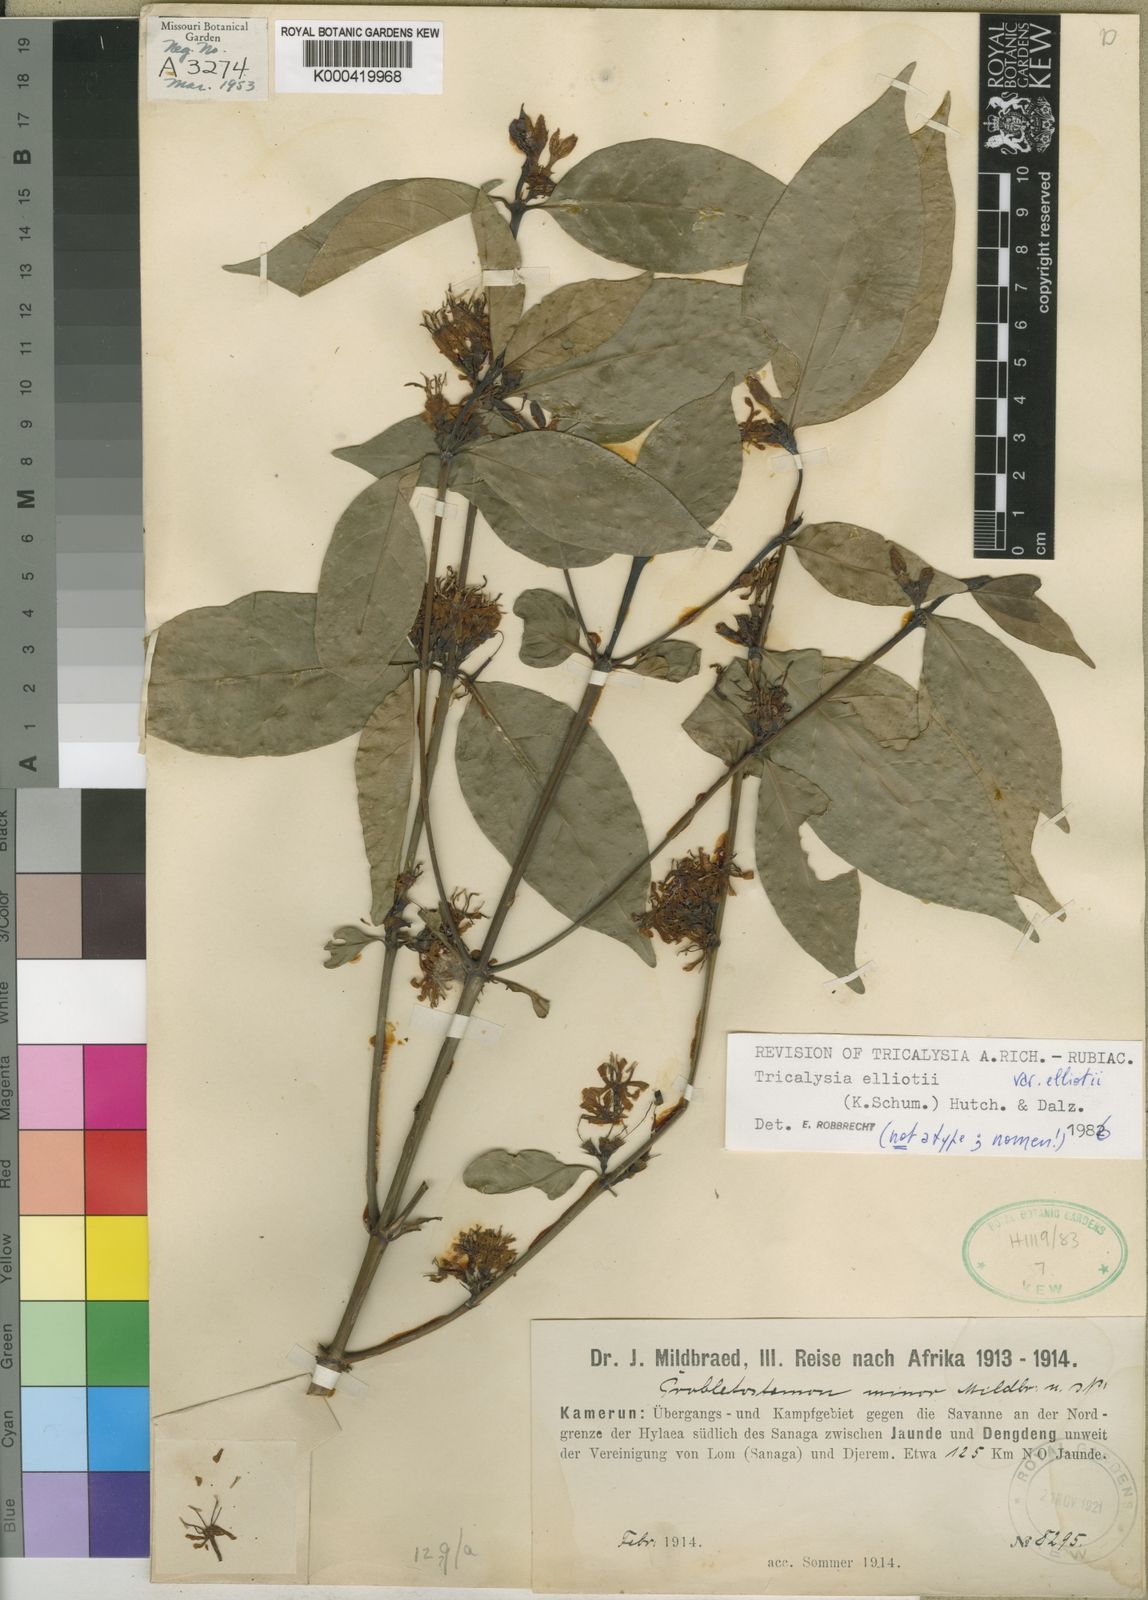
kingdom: Plantae
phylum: Tracheophyta
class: Magnoliopsida
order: Gentianales
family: Rubiaceae
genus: Tricalysia
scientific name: Tricalysia elliottii
